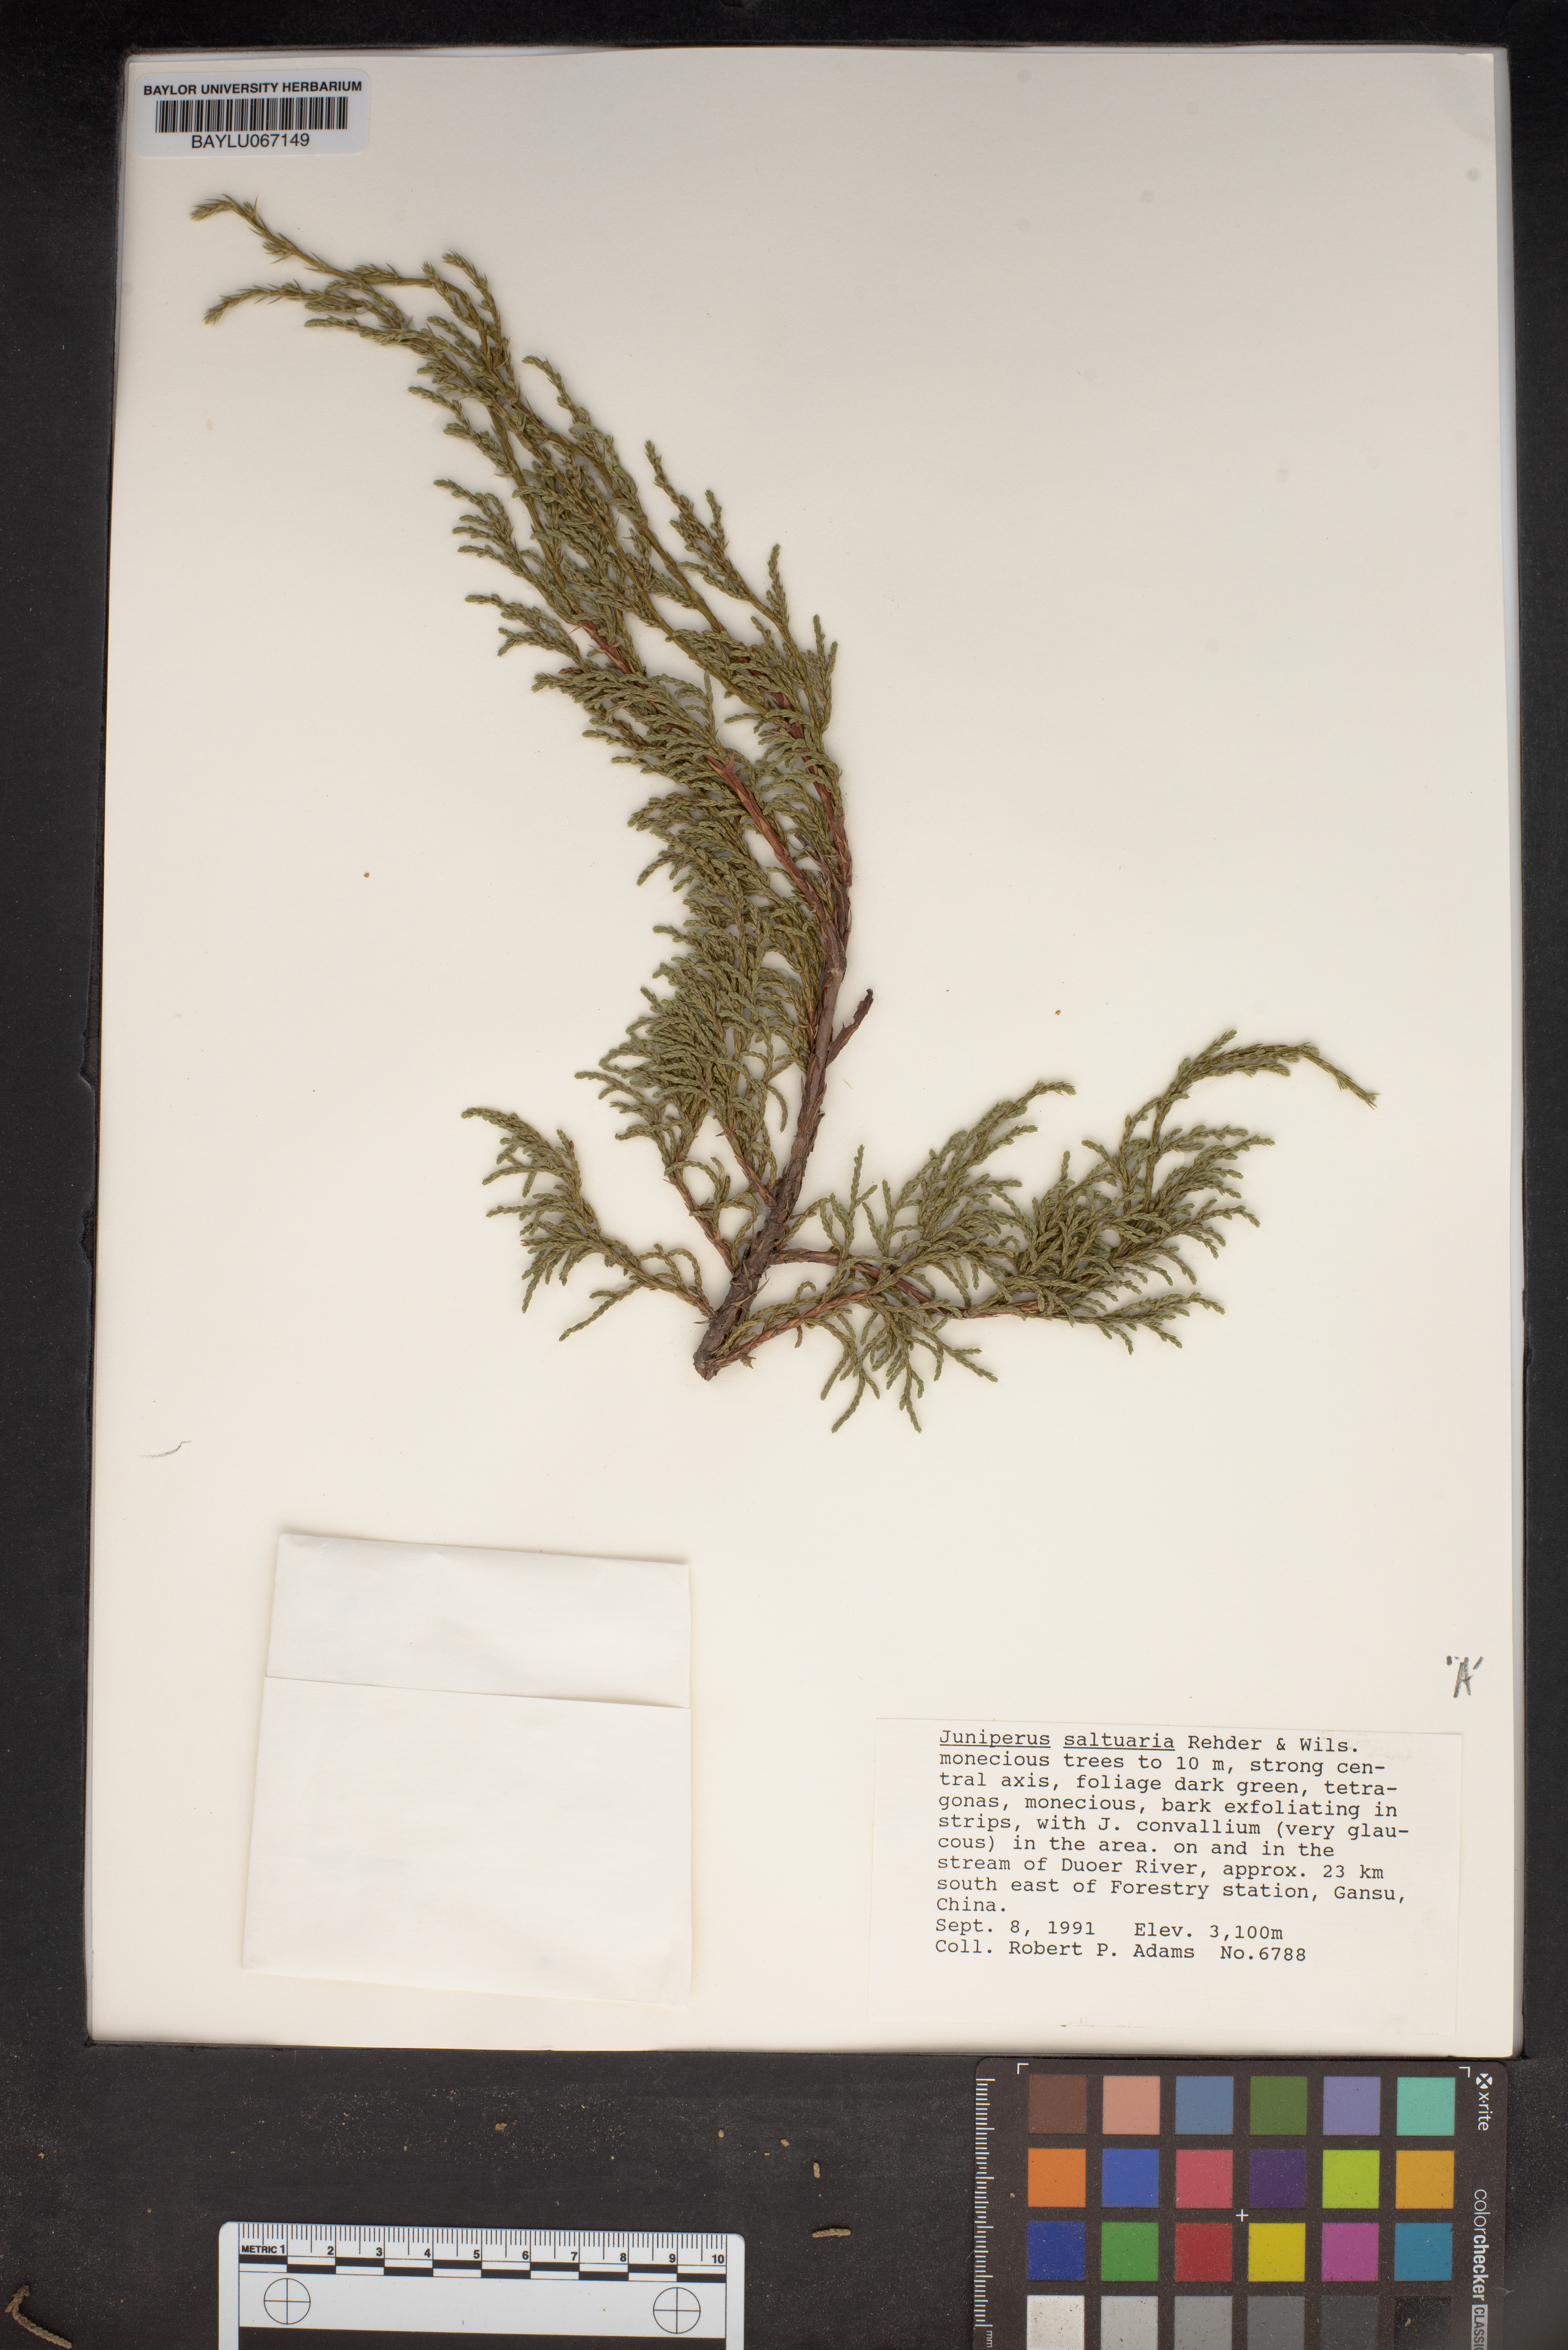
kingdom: Plantae
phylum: Tracheophyta
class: Pinopsida
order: Pinales
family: Cupressaceae
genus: Juniperus
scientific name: Juniperus saltuaria
